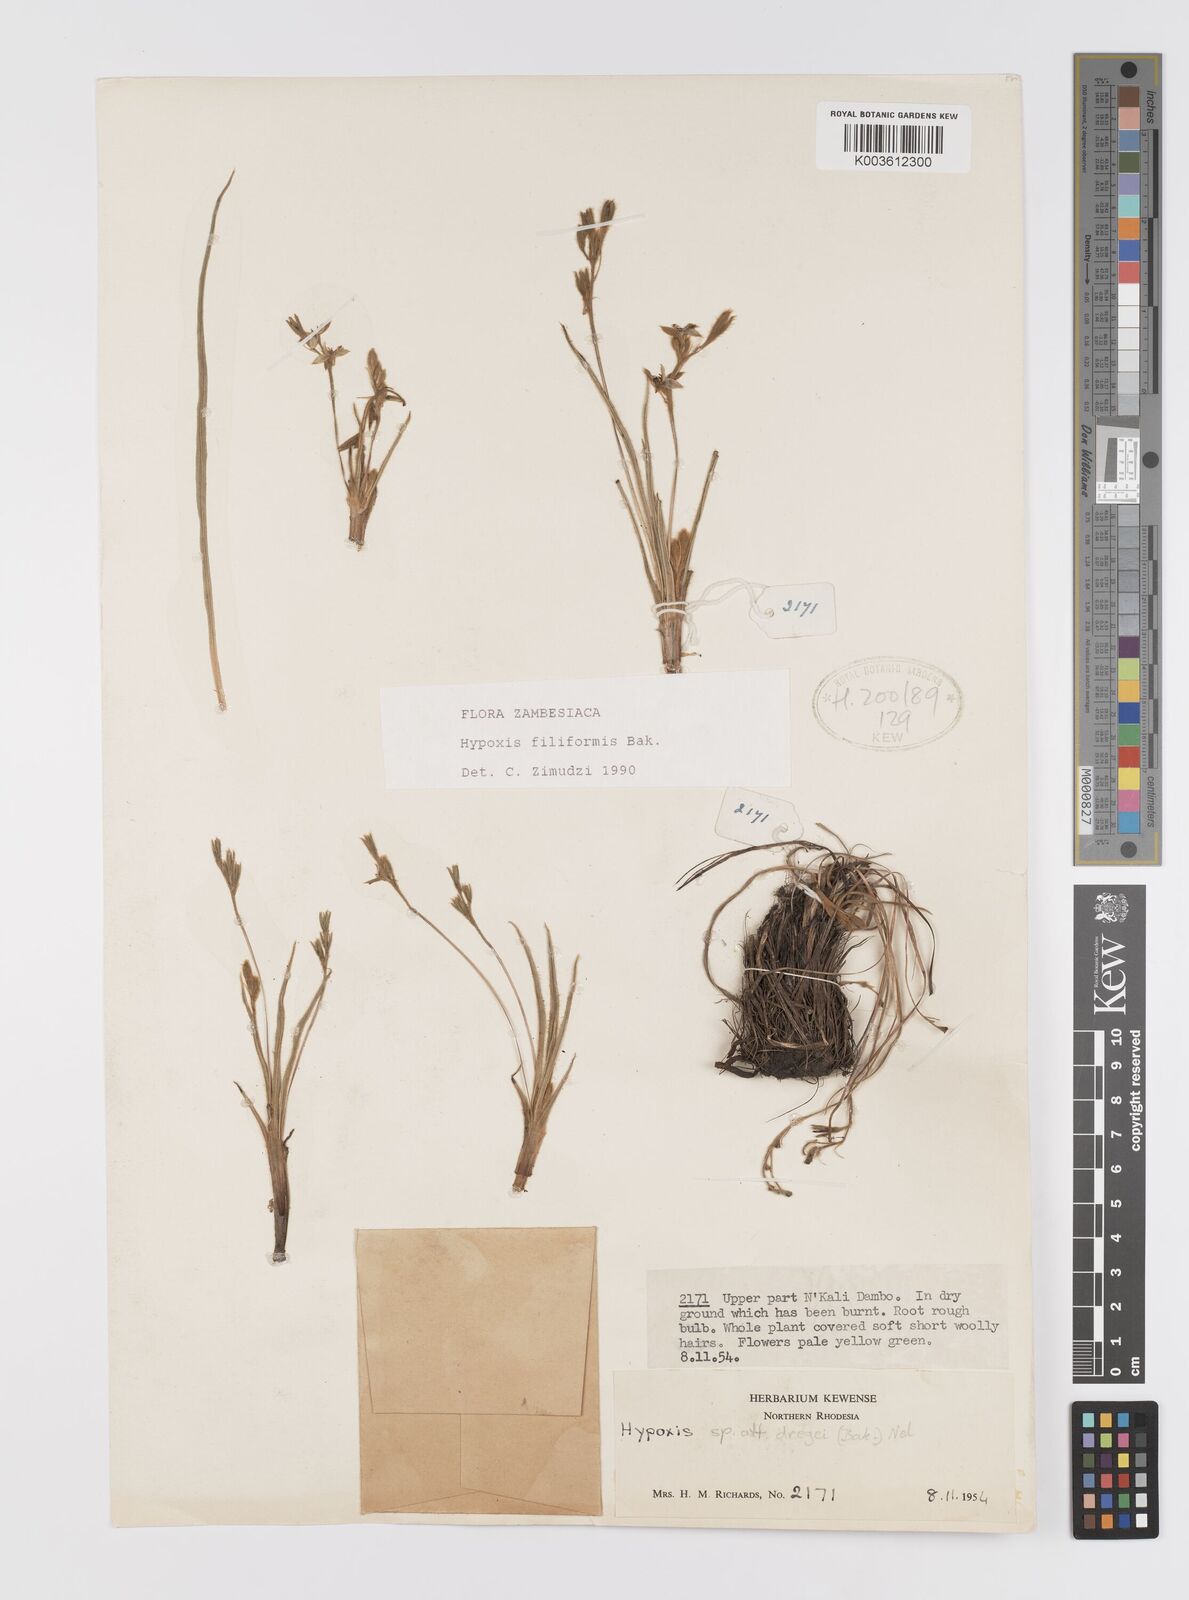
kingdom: Plantae
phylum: Tracheophyta
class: Liliopsida
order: Asparagales
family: Hypoxidaceae
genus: Hypoxis
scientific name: Hypoxis filiformis
